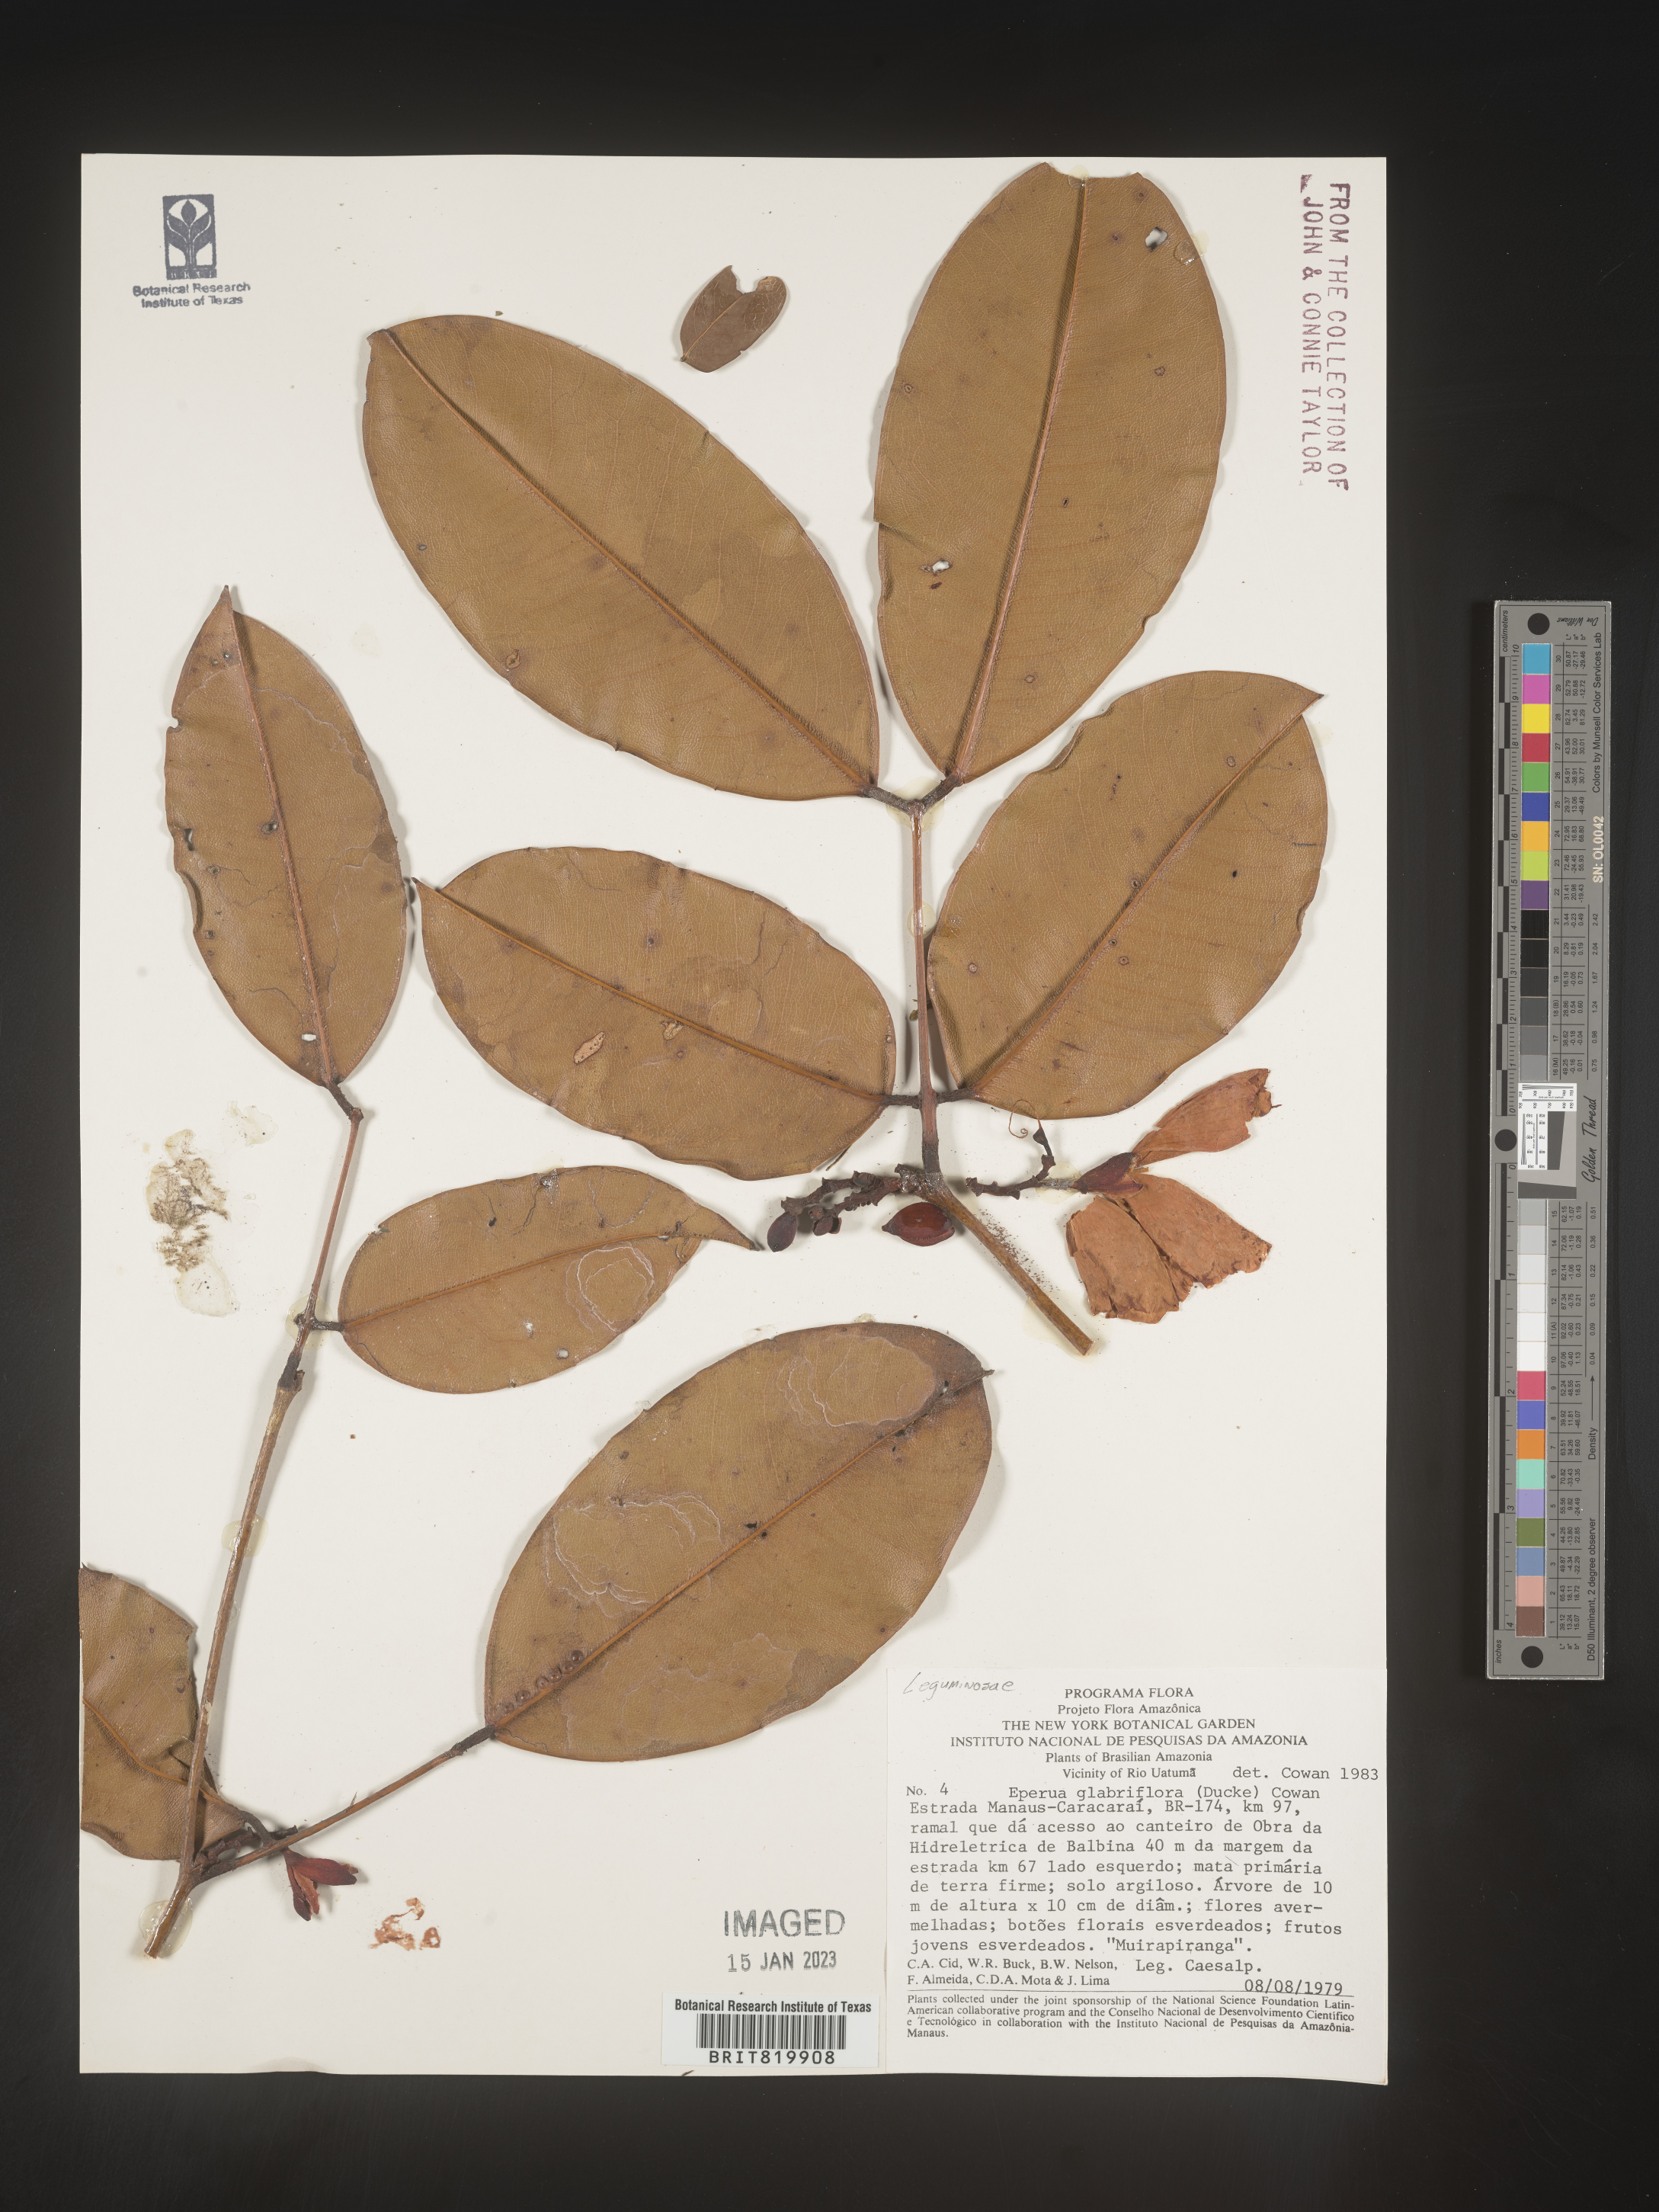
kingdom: Plantae
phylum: Tracheophyta
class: Magnoliopsida
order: Fabales
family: Fabaceae
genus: Eperua
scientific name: Eperua
